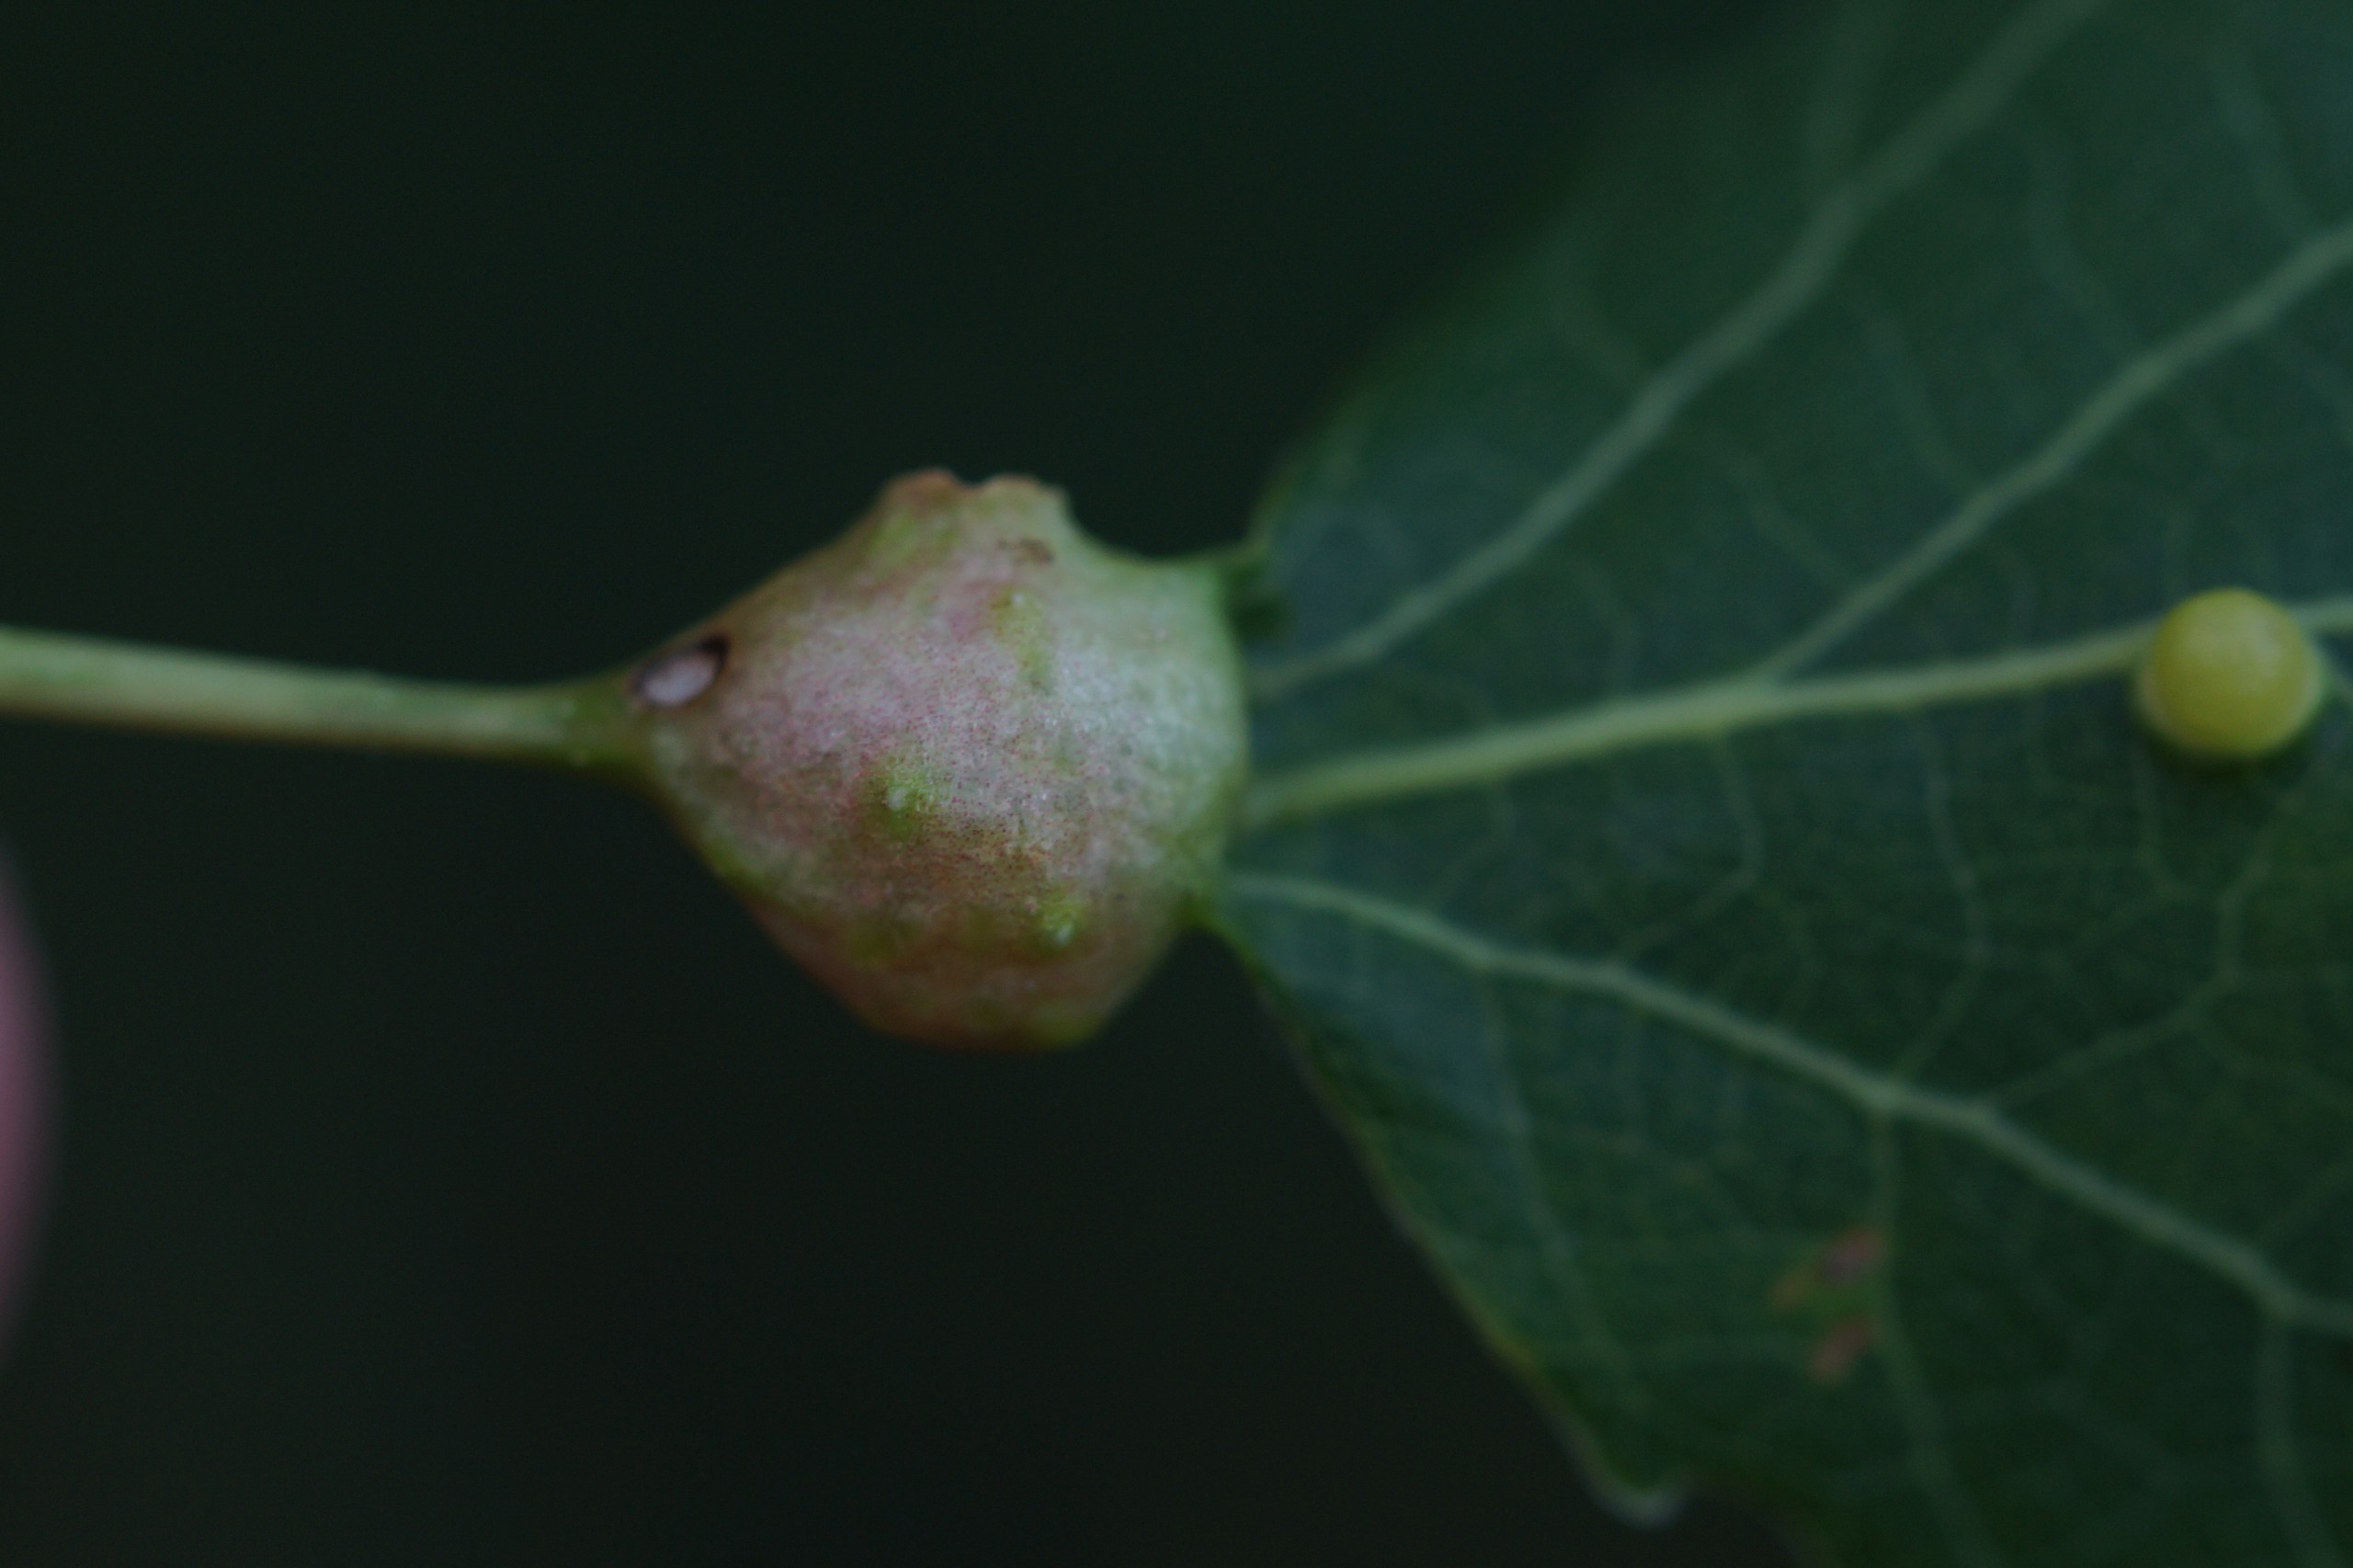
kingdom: Animalia
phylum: Arthropoda
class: Insecta
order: Diptera
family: Cecidomyiidae
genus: Contarinia
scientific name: Contarinia petioli
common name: Aspestilkgalmyg
